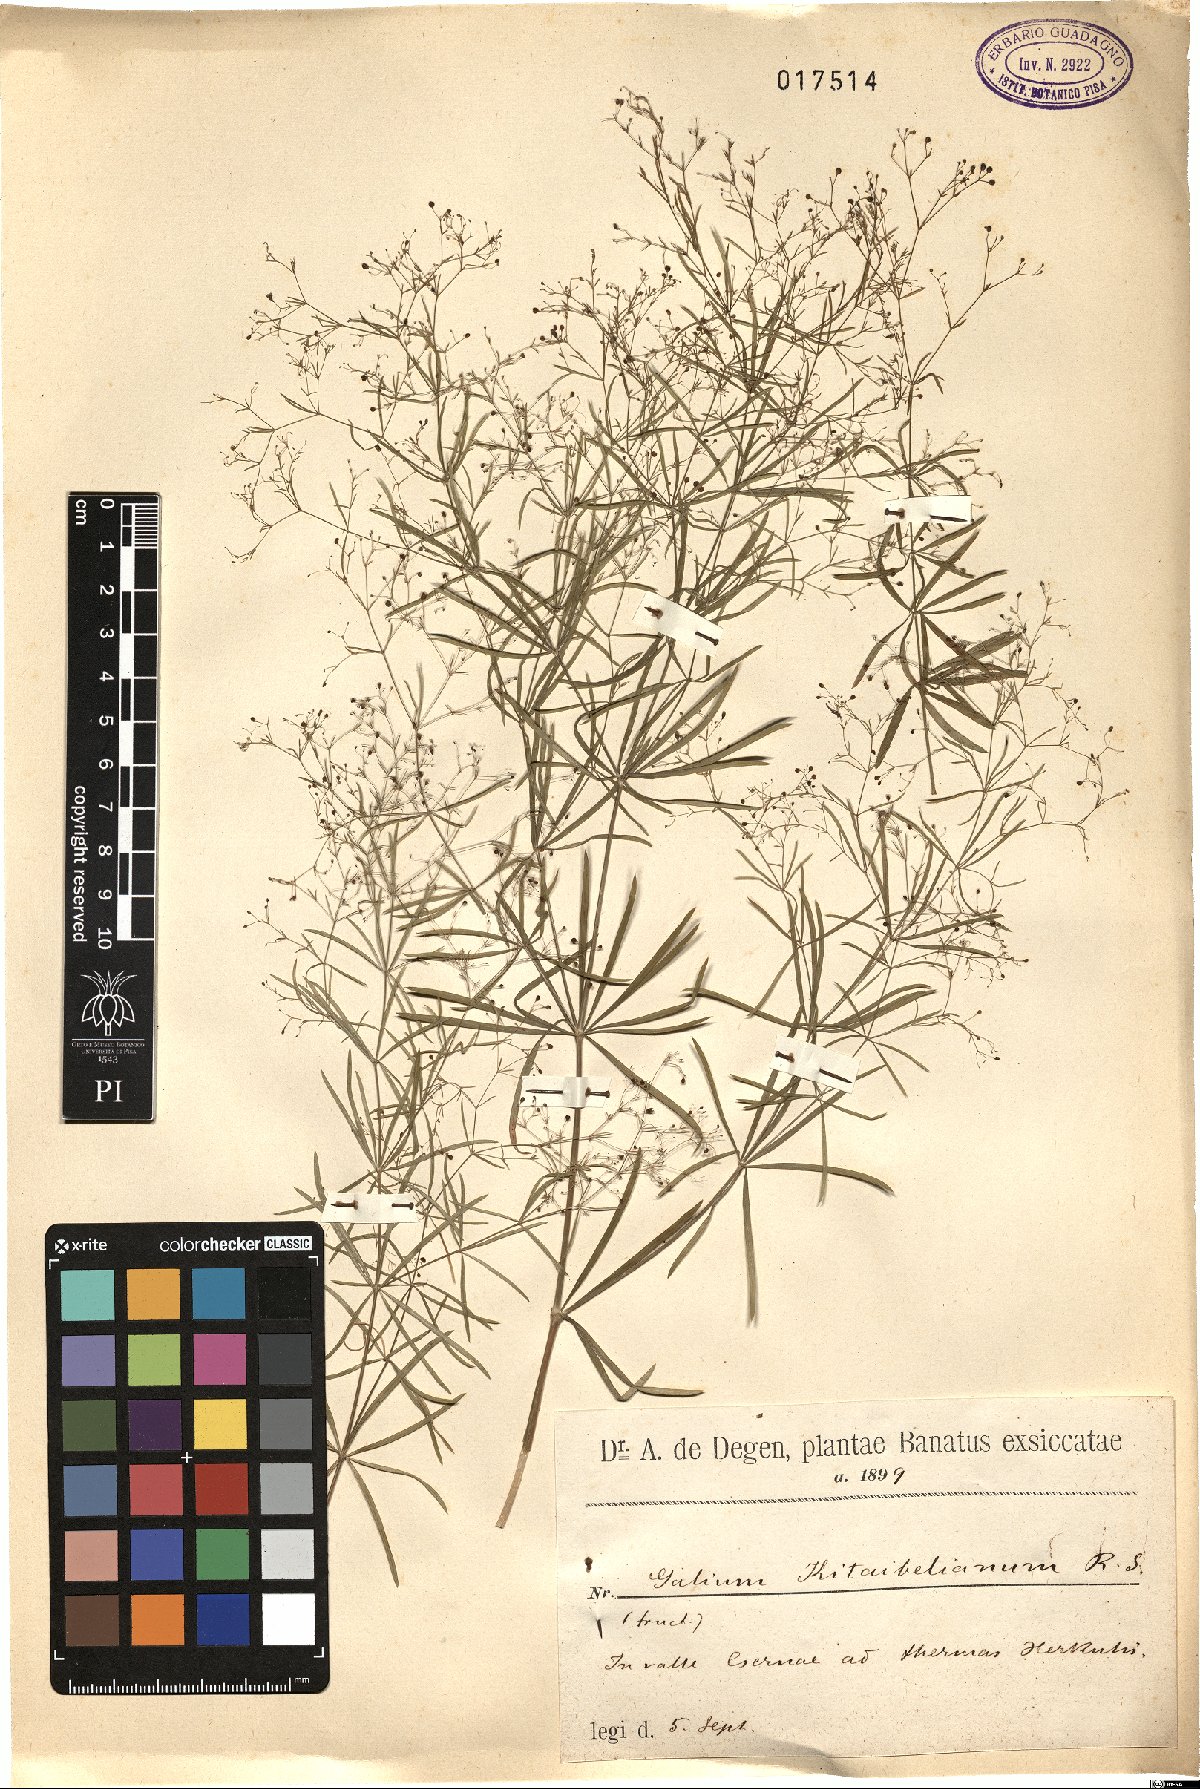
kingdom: Plantae
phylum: Tracheophyta
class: Magnoliopsida
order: Gentianales
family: Rubiaceae
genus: Galium
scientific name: Galium kitaibelianum
